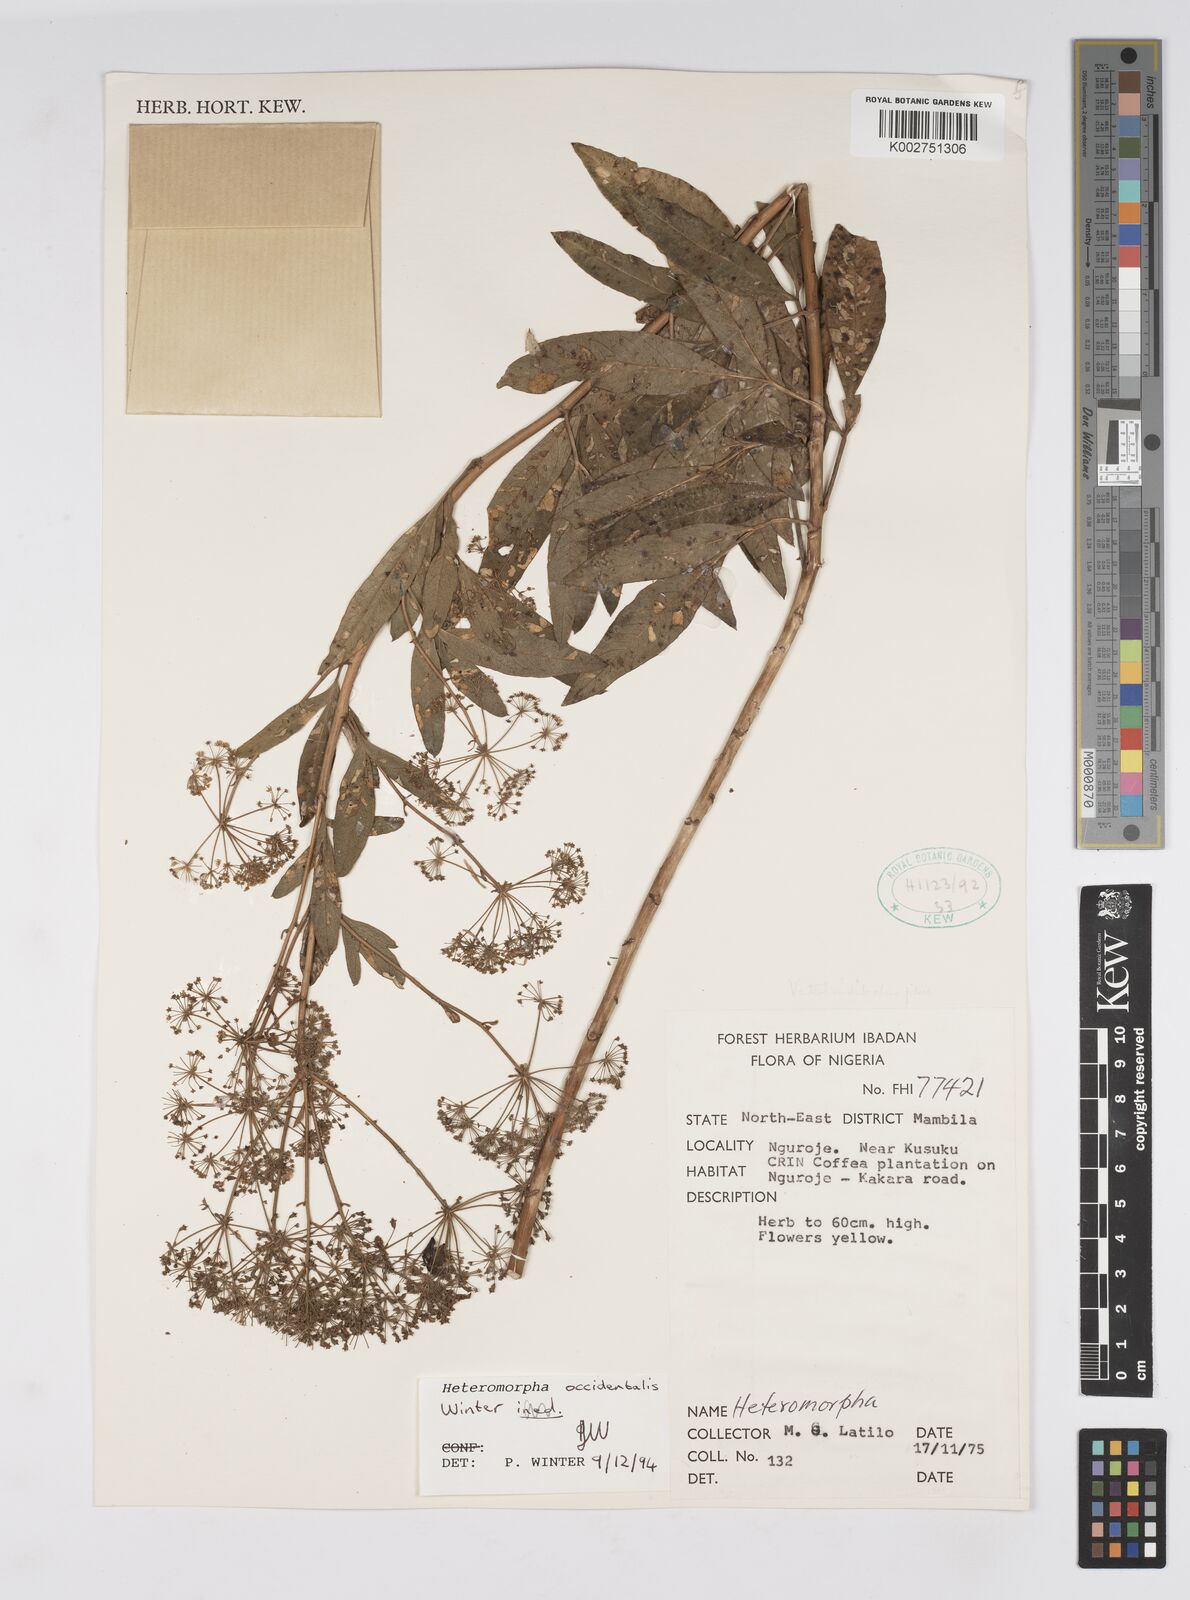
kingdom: Plantae
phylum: Tracheophyta
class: Magnoliopsida
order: Apiales
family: Apiaceae
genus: Heteromorpha
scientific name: Heteromorpha occidentalis
